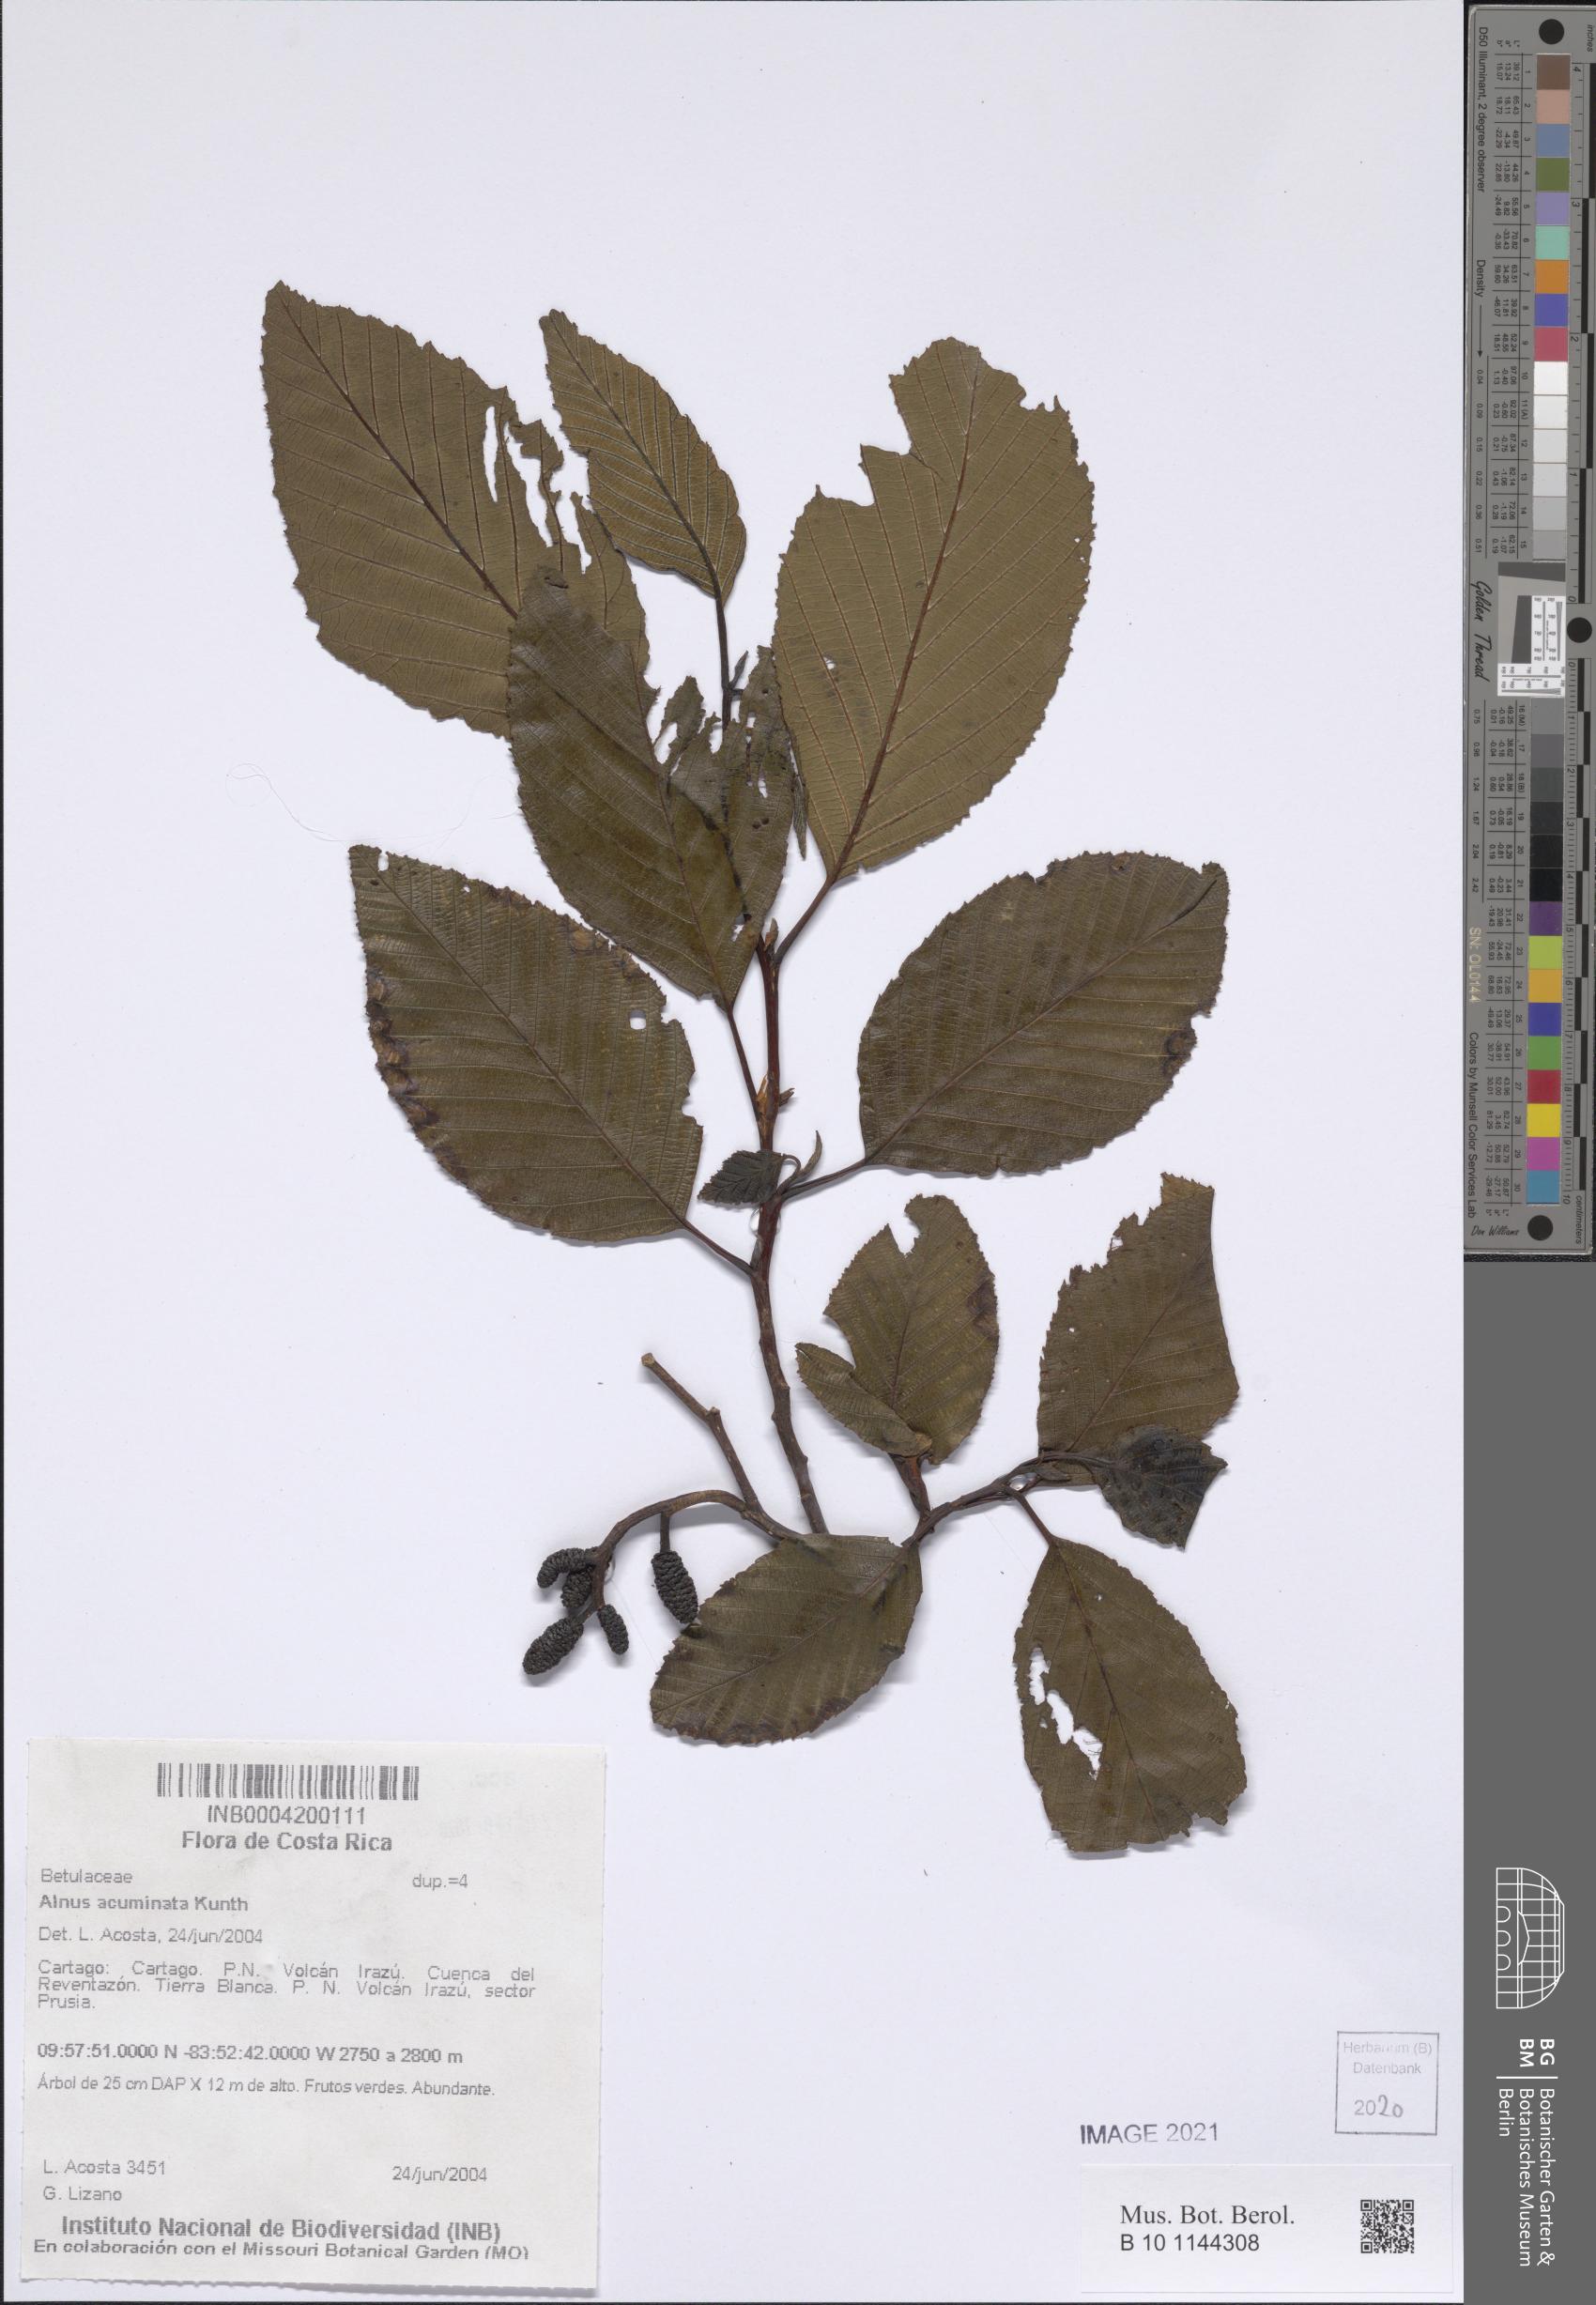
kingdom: Plantae
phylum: Tracheophyta
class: Magnoliopsida
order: Fagales
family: Betulaceae
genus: Alnus
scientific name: Alnus acuminata
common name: Alder
